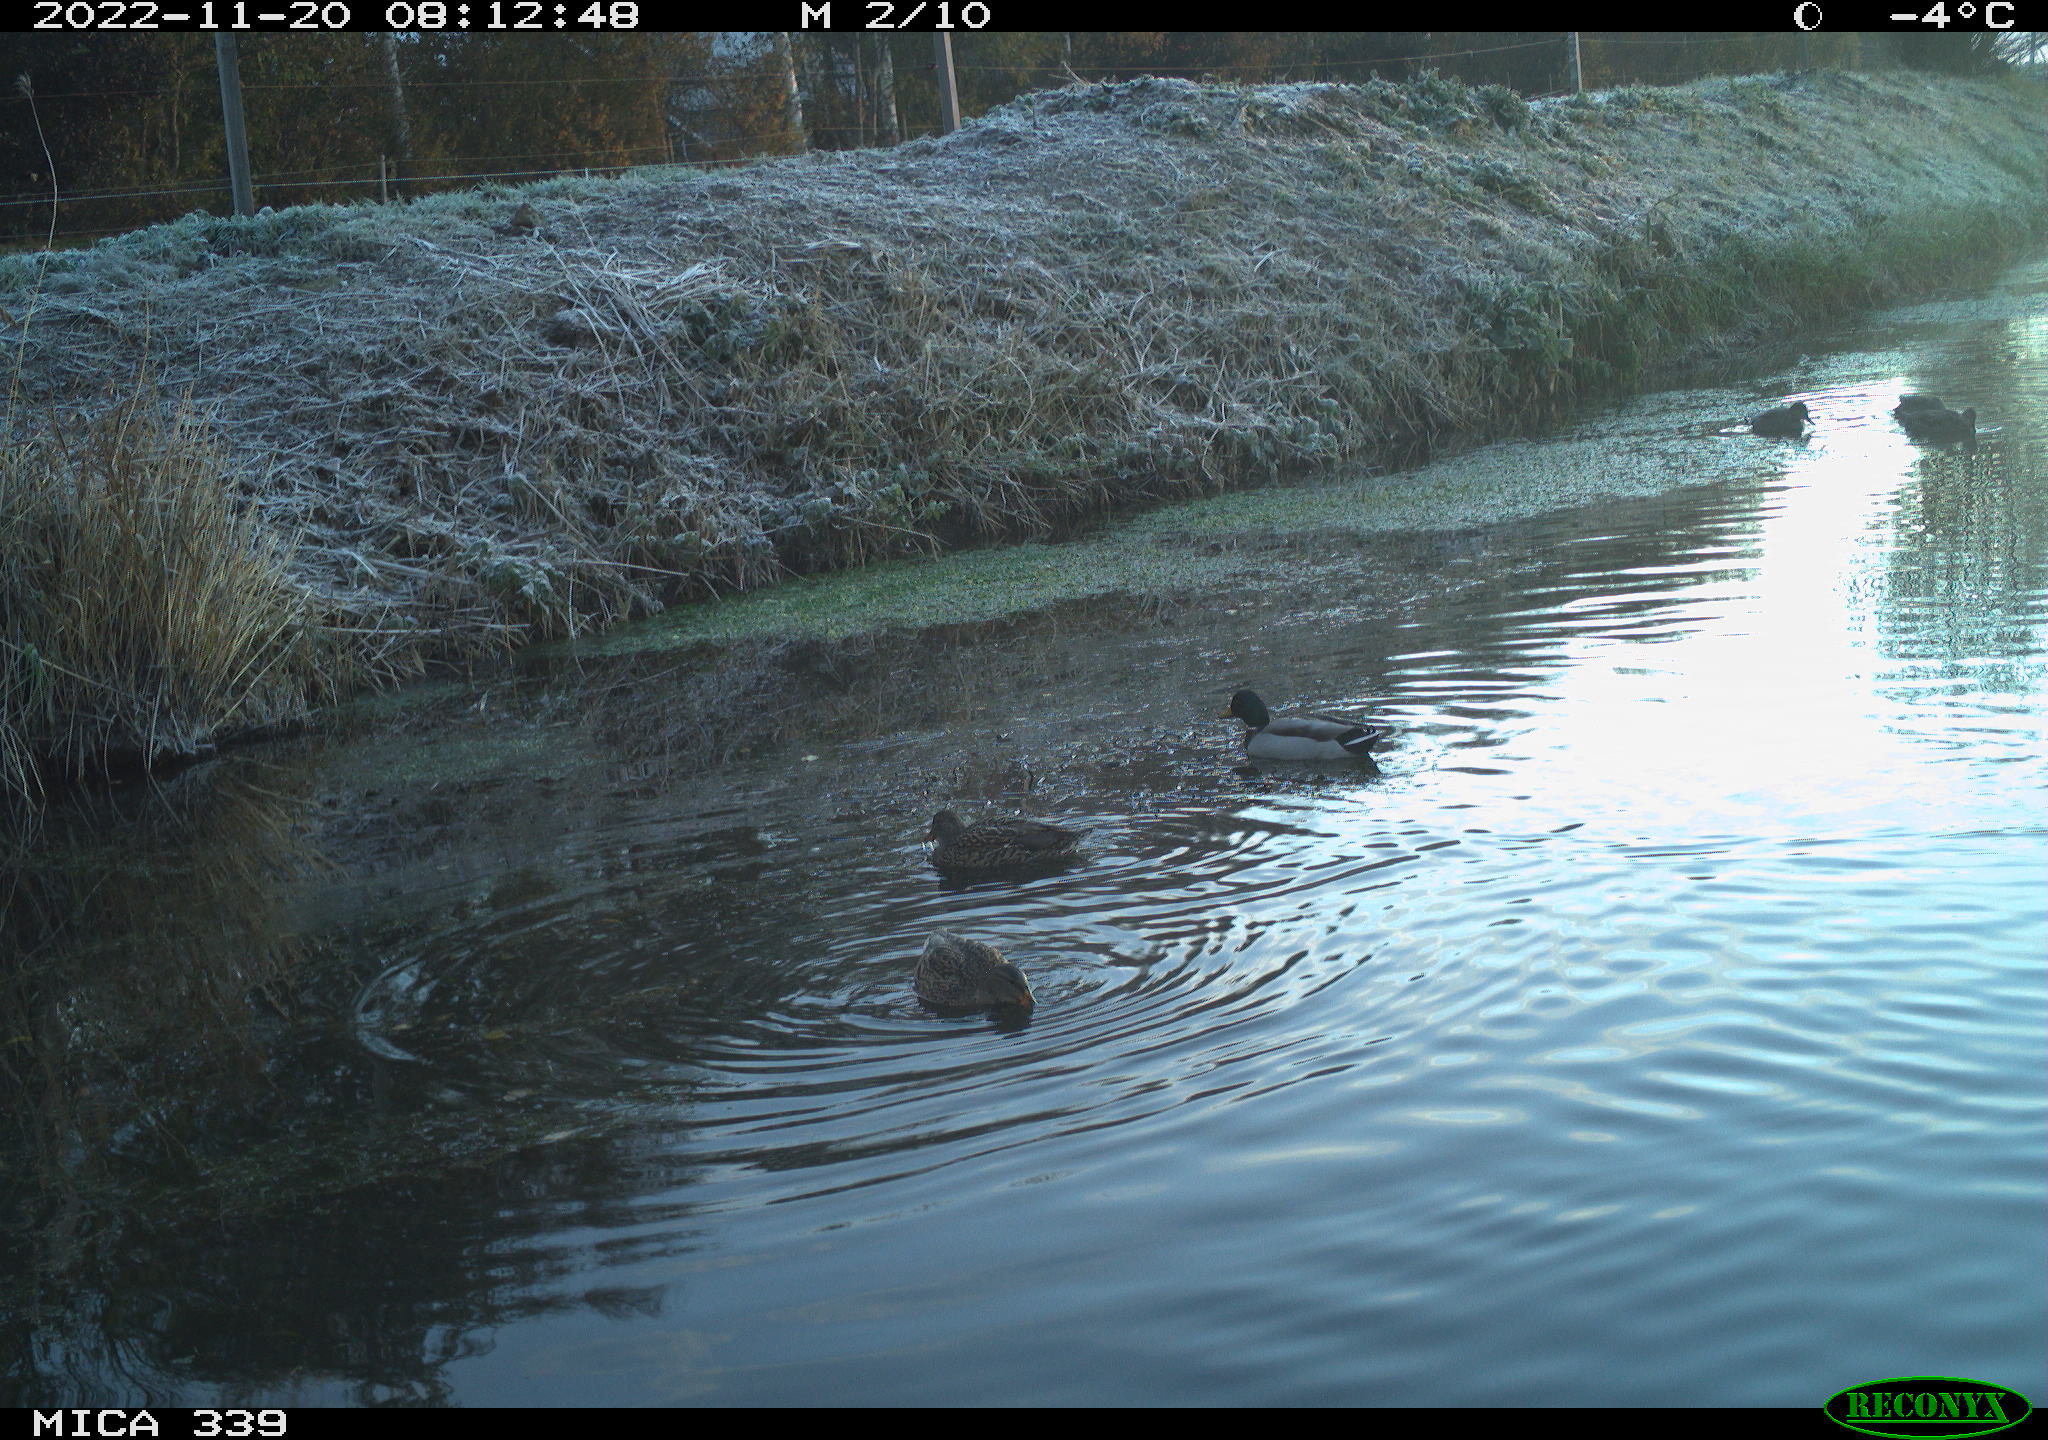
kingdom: Animalia
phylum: Chordata
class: Aves
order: Anseriformes
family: Anatidae
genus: Anas
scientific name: Anas platyrhynchos
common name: Mallard
